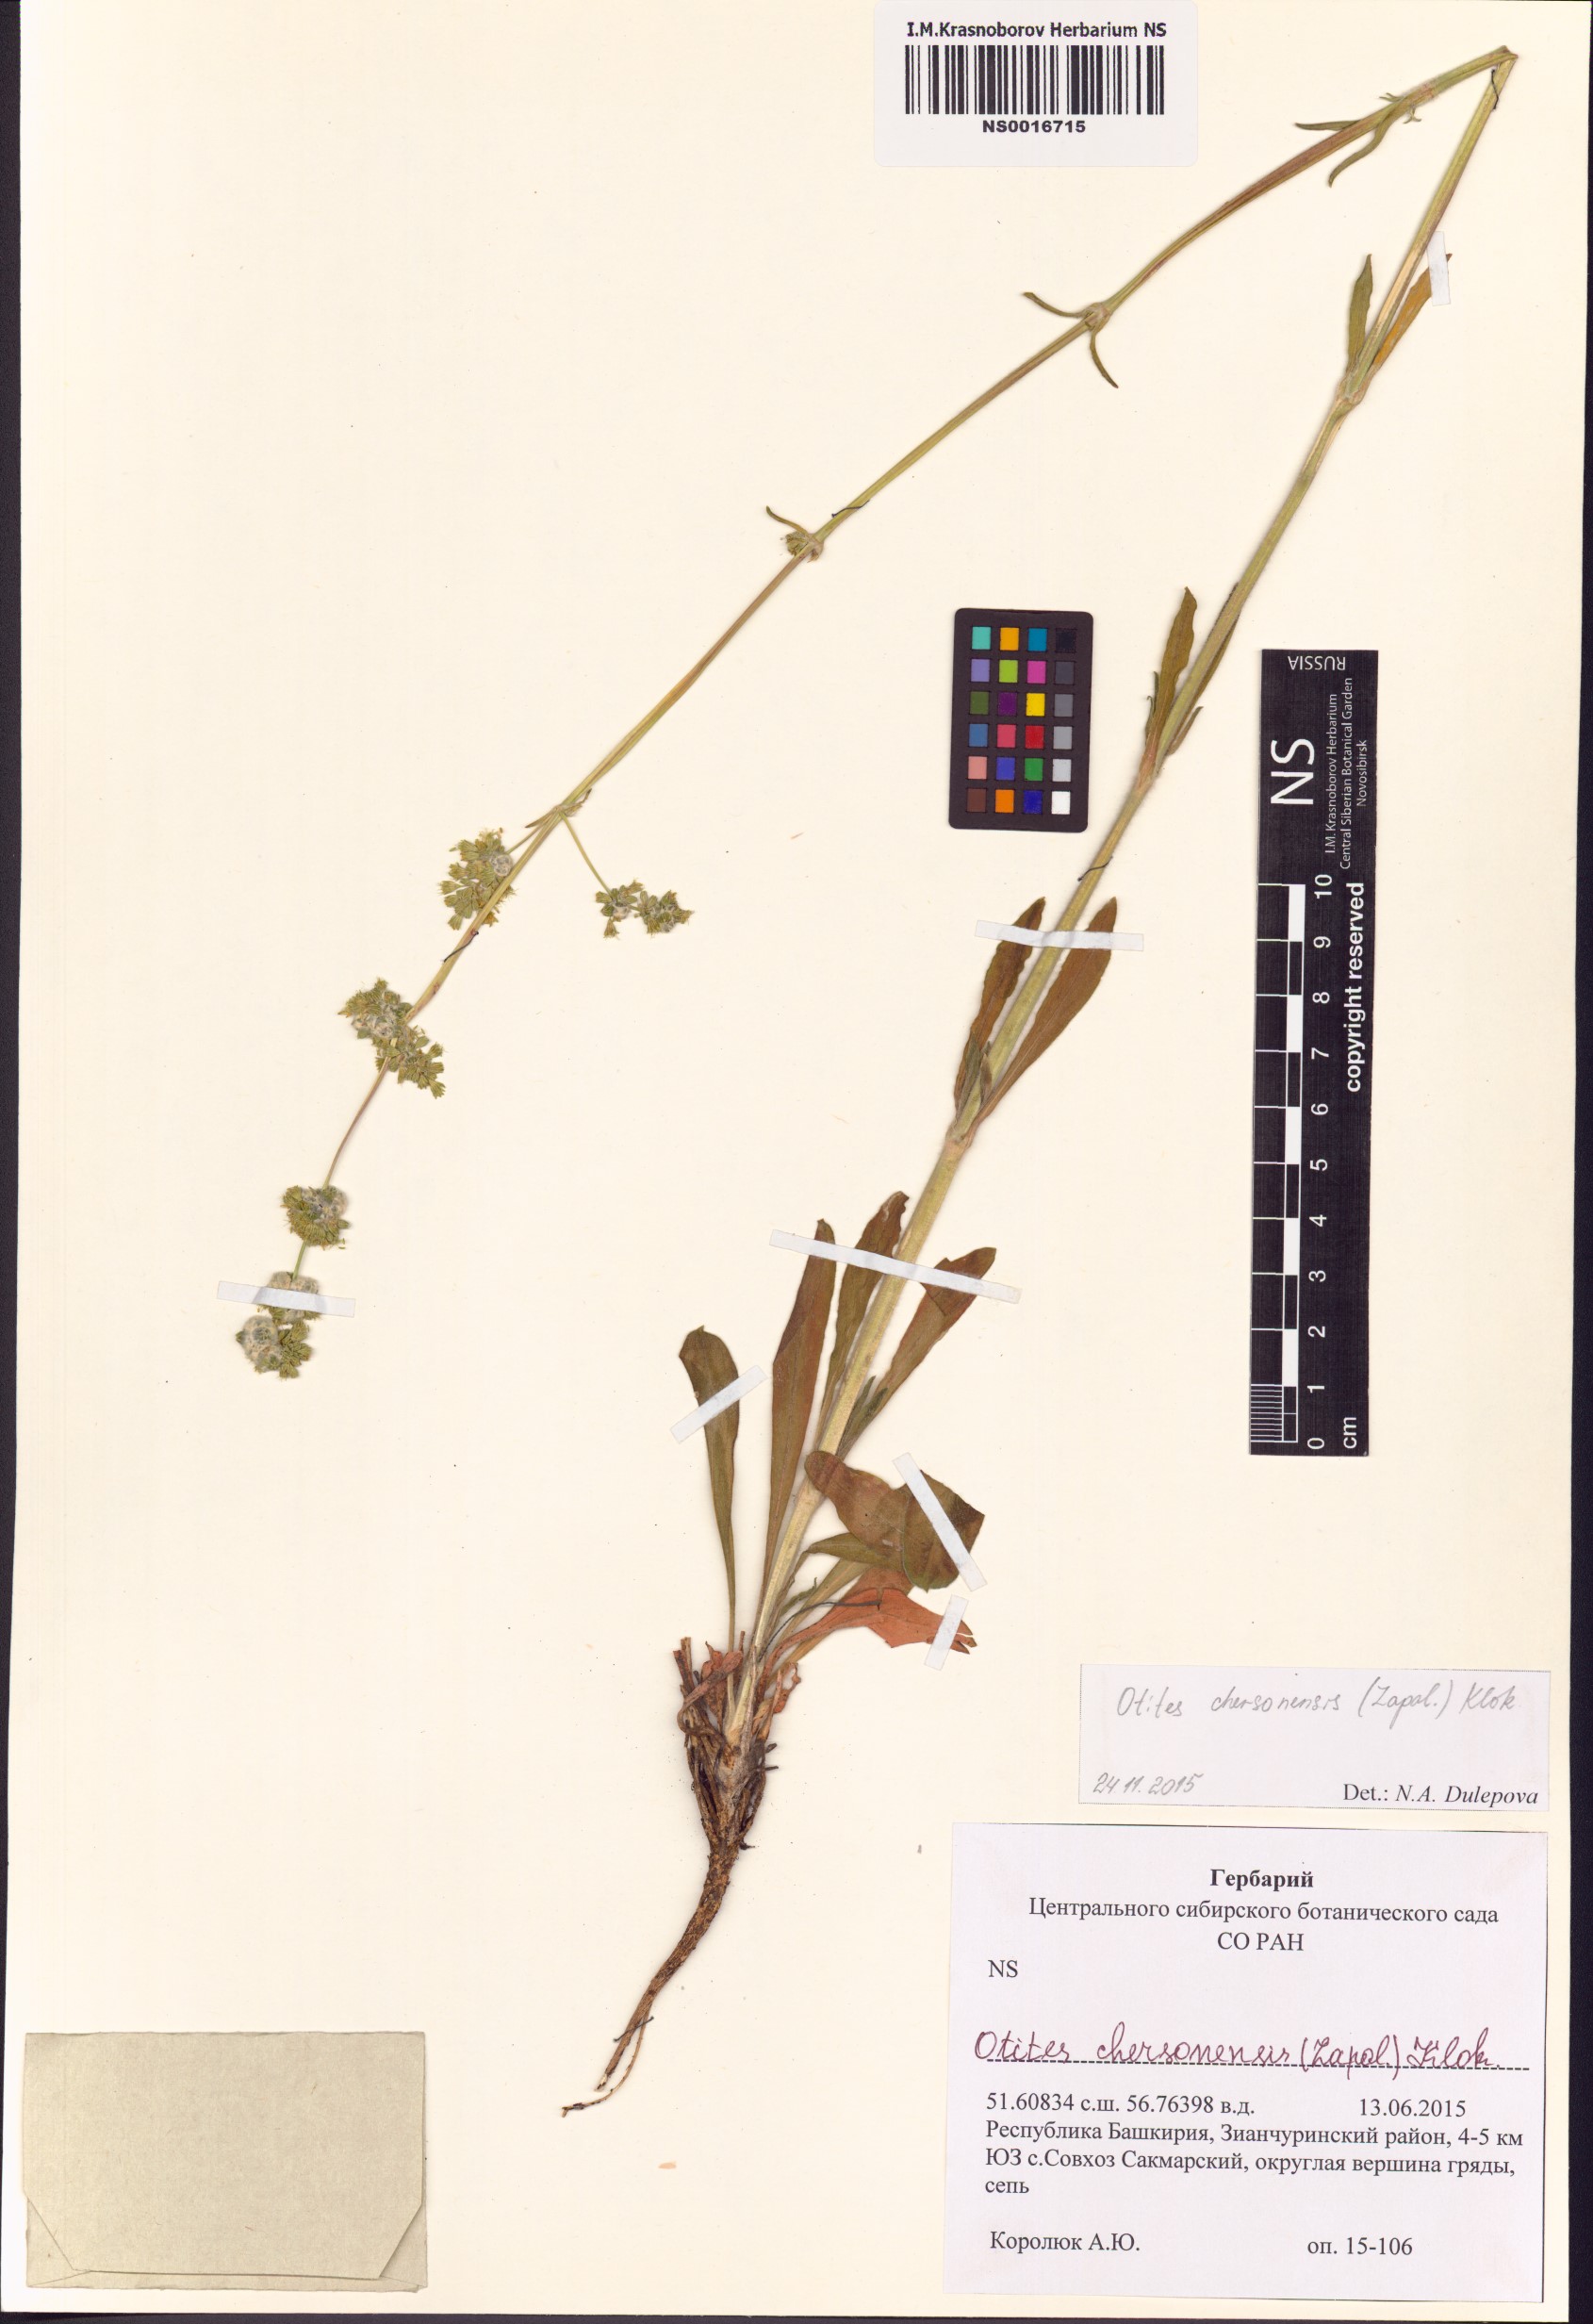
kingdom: Plantae
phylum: Tracheophyta
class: Magnoliopsida
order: Caryophyllales
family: Caryophyllaceae
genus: Silene
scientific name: Silene chersonensis
